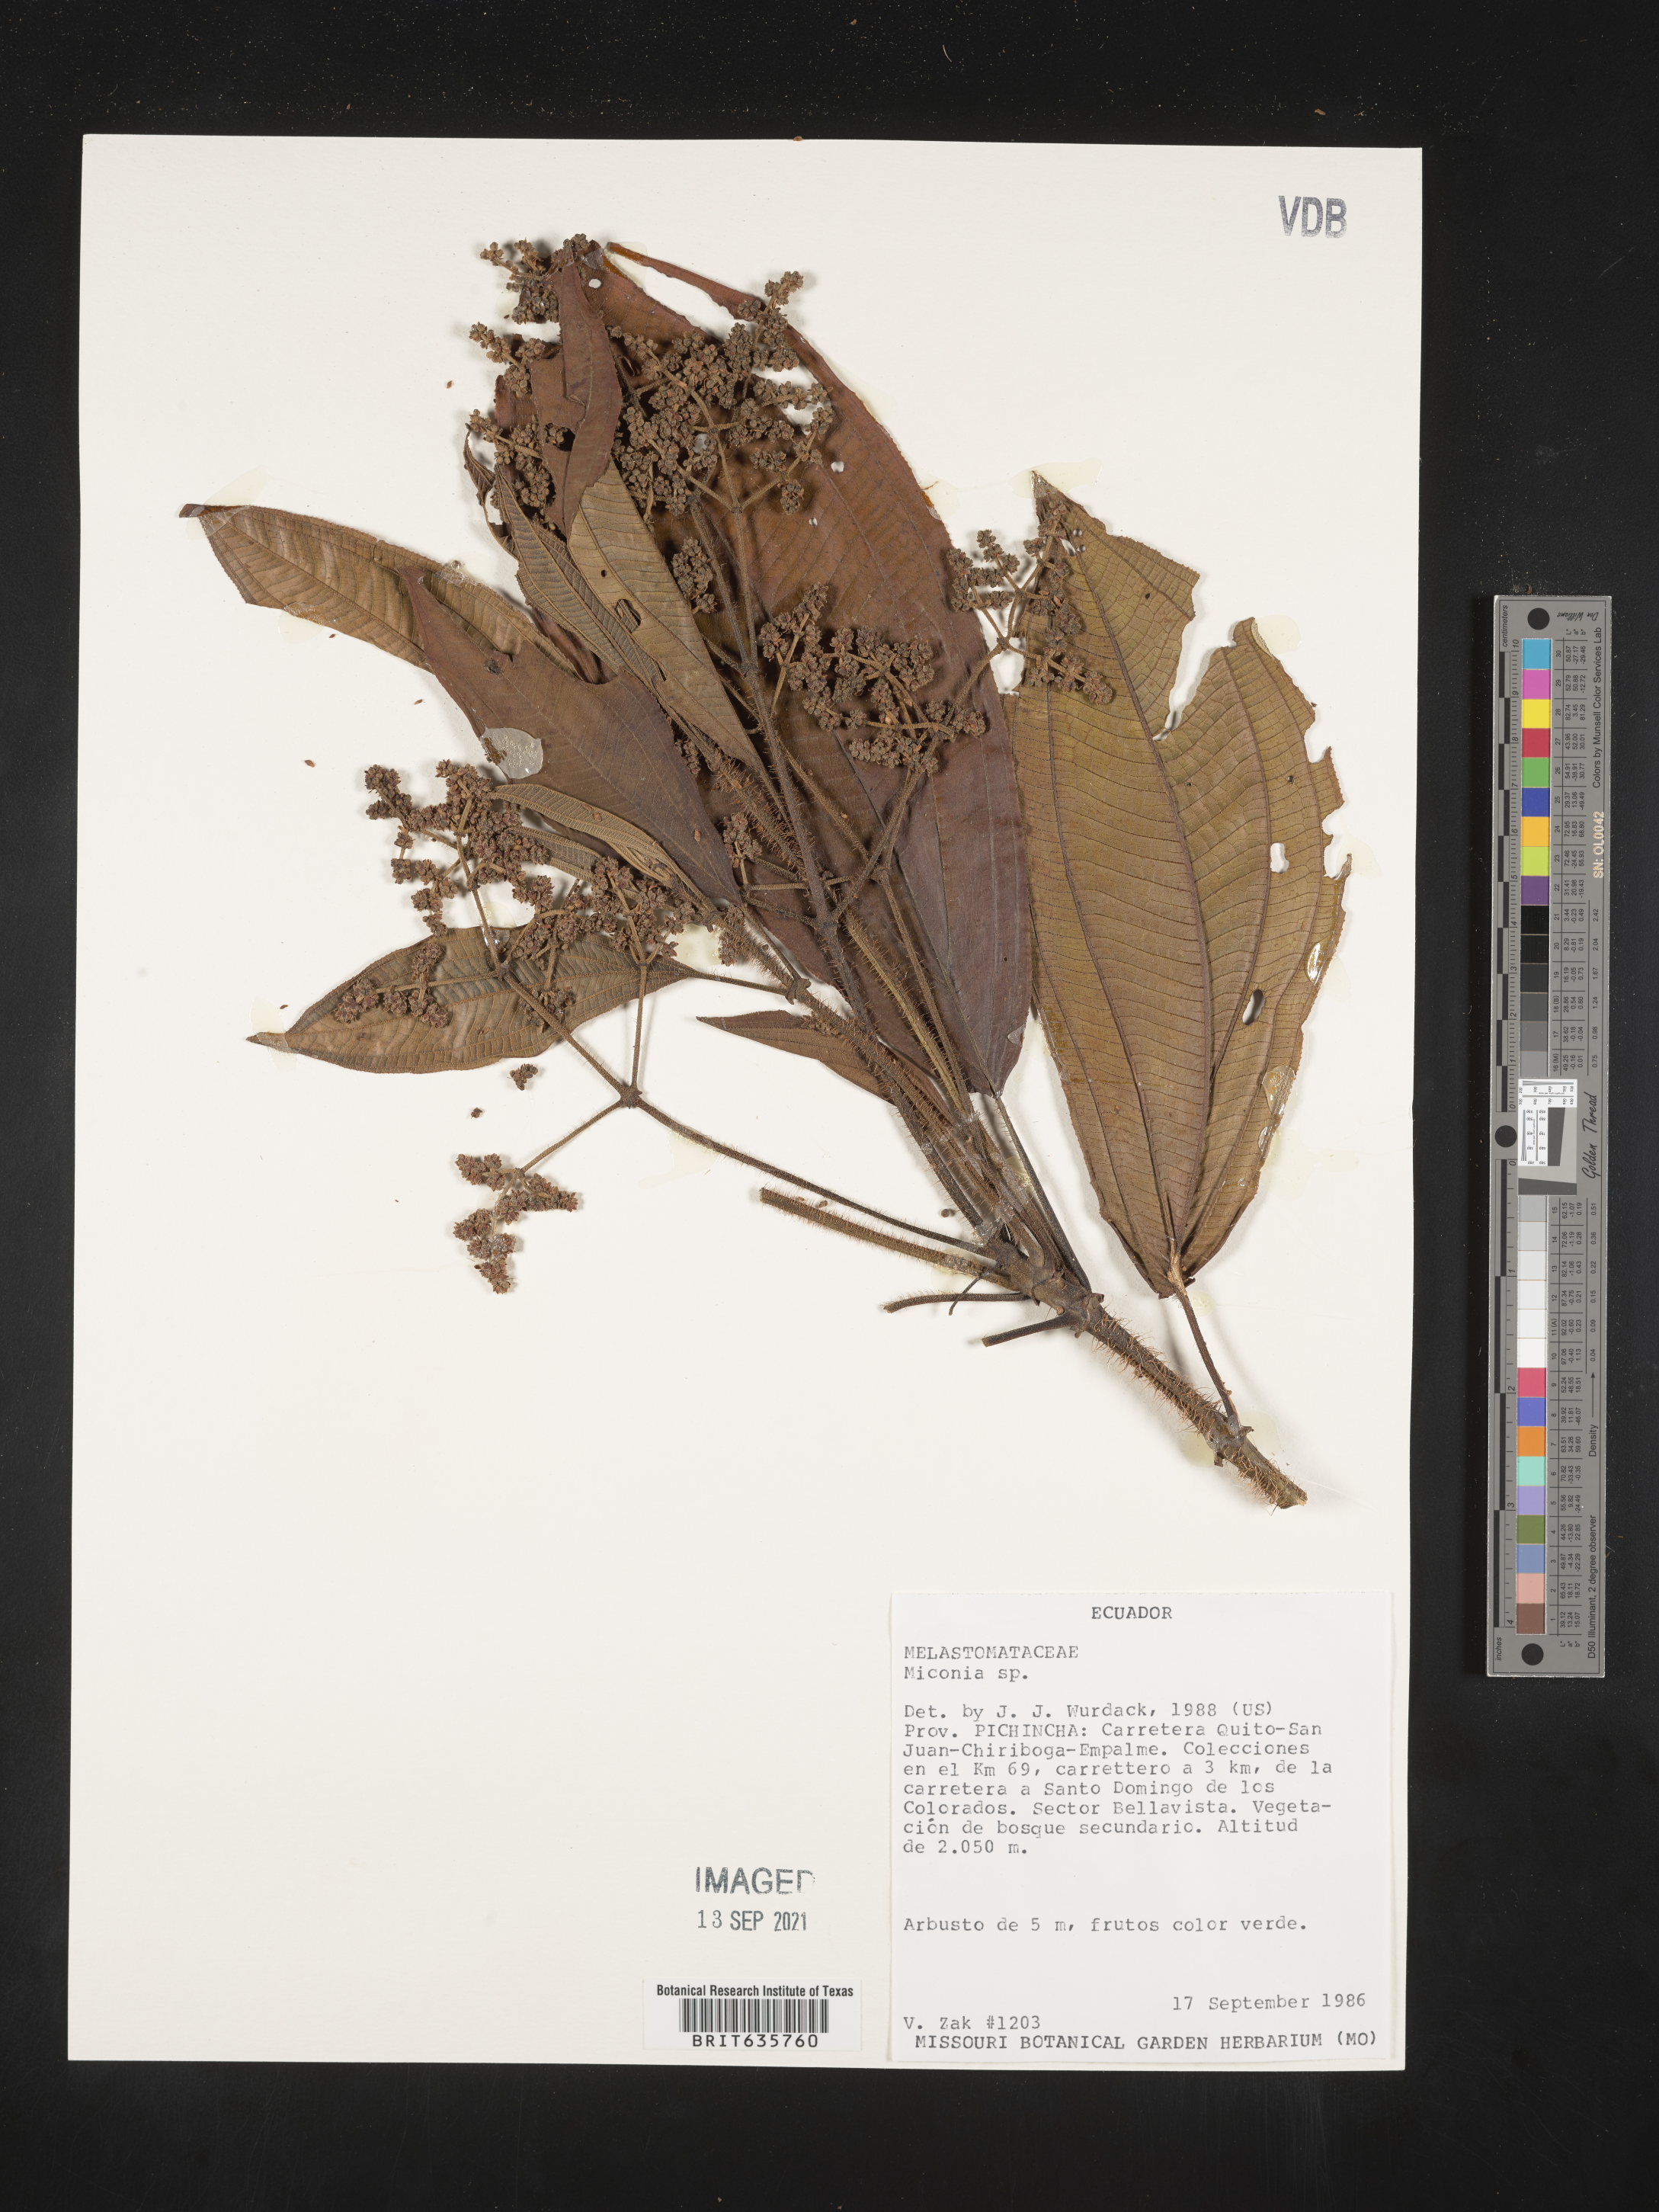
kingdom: Plantae
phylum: Tracheophyta
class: Magnoliopsida
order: Myrtales
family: Melastomataceae
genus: Miconia
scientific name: Miconia
